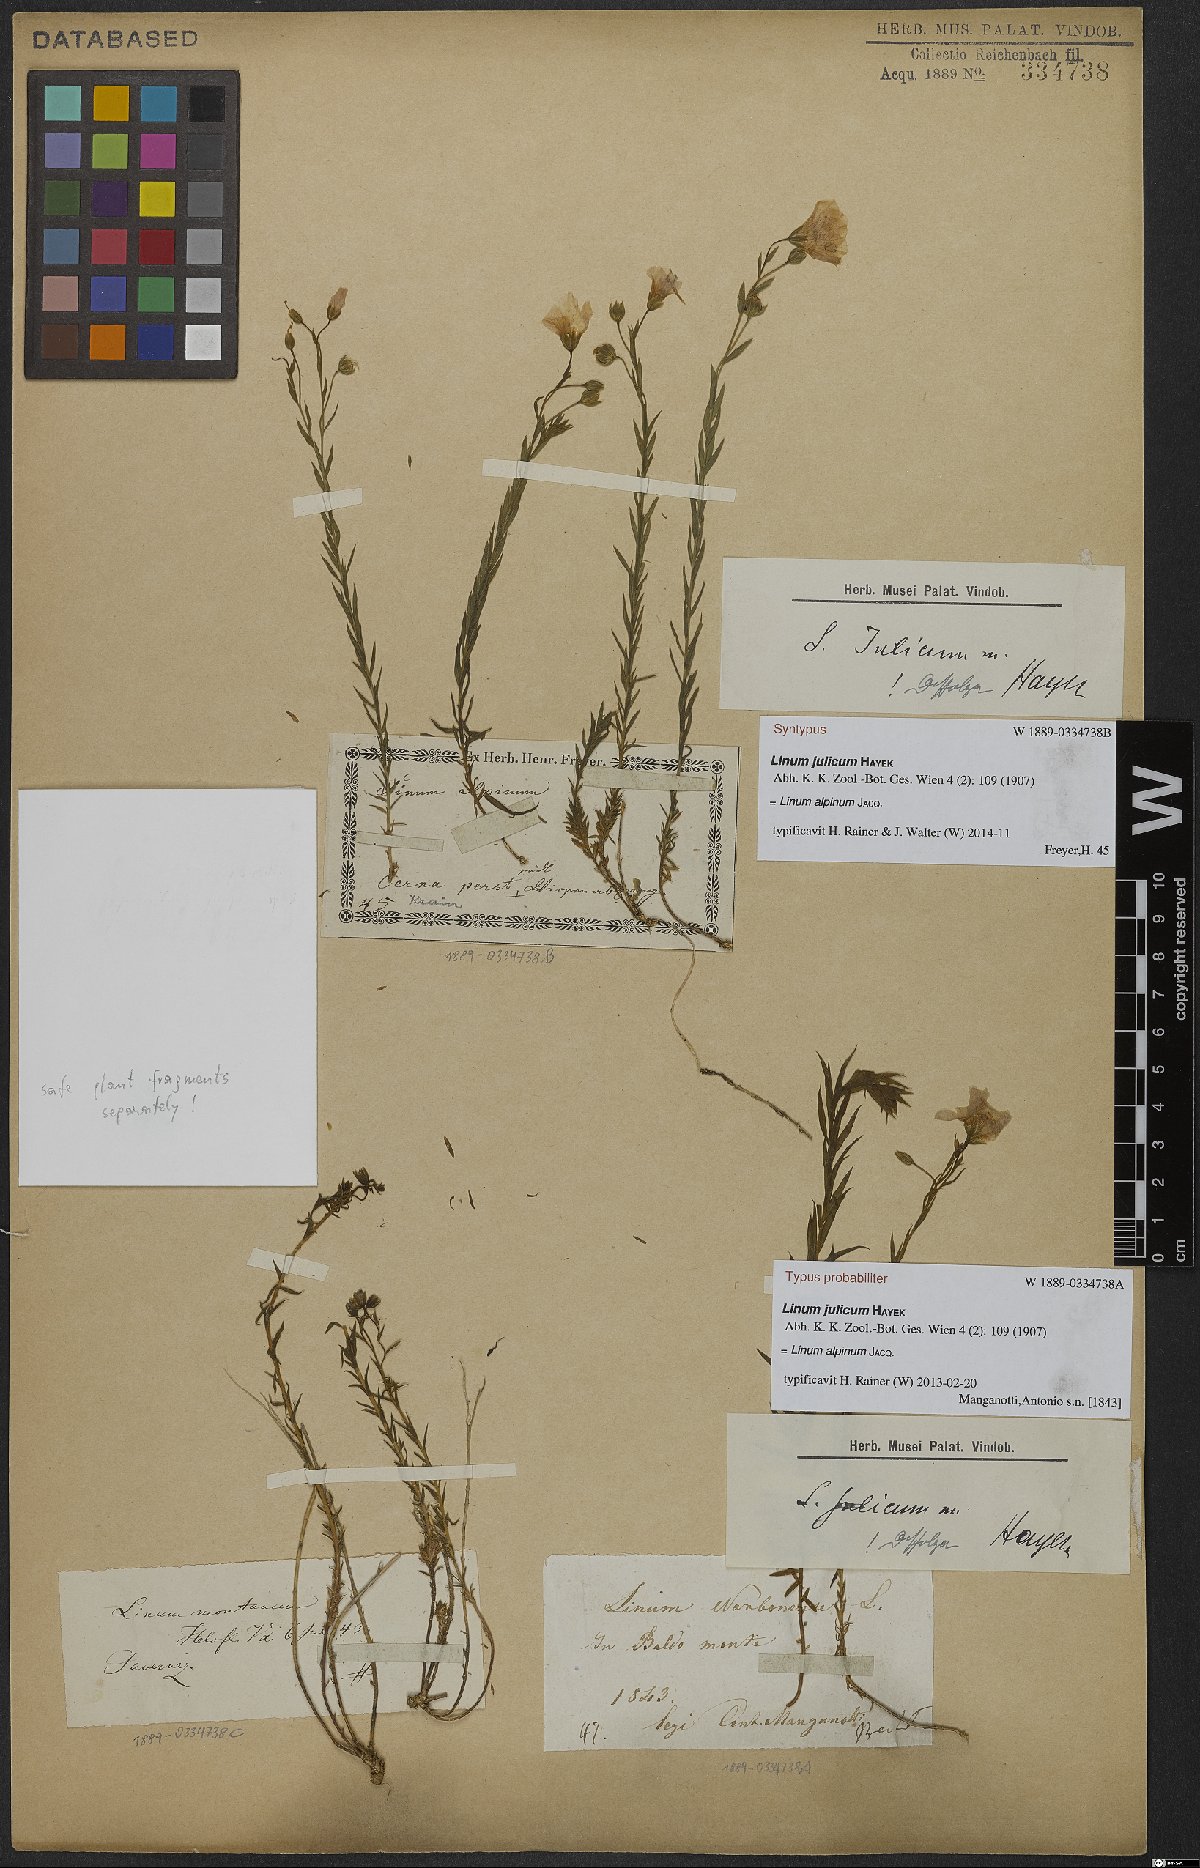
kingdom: Plantae
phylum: Tracheophyta
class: Magnoliopsida
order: Malpighiales
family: Linaceae
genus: Linum
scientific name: Linum alpinum
